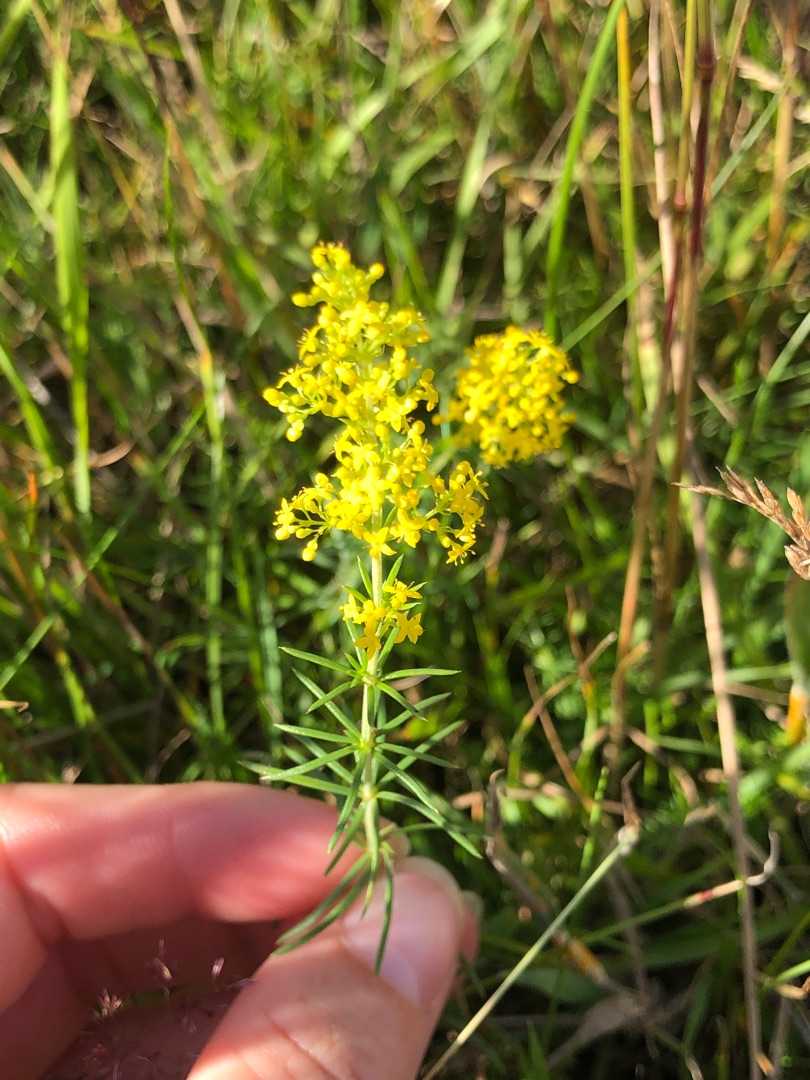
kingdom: Plantae
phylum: Tracheophyta
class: Magnoliopsida
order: Gentianales
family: Rubiaceae
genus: Galium
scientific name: Galium verum
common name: Gul snerre
